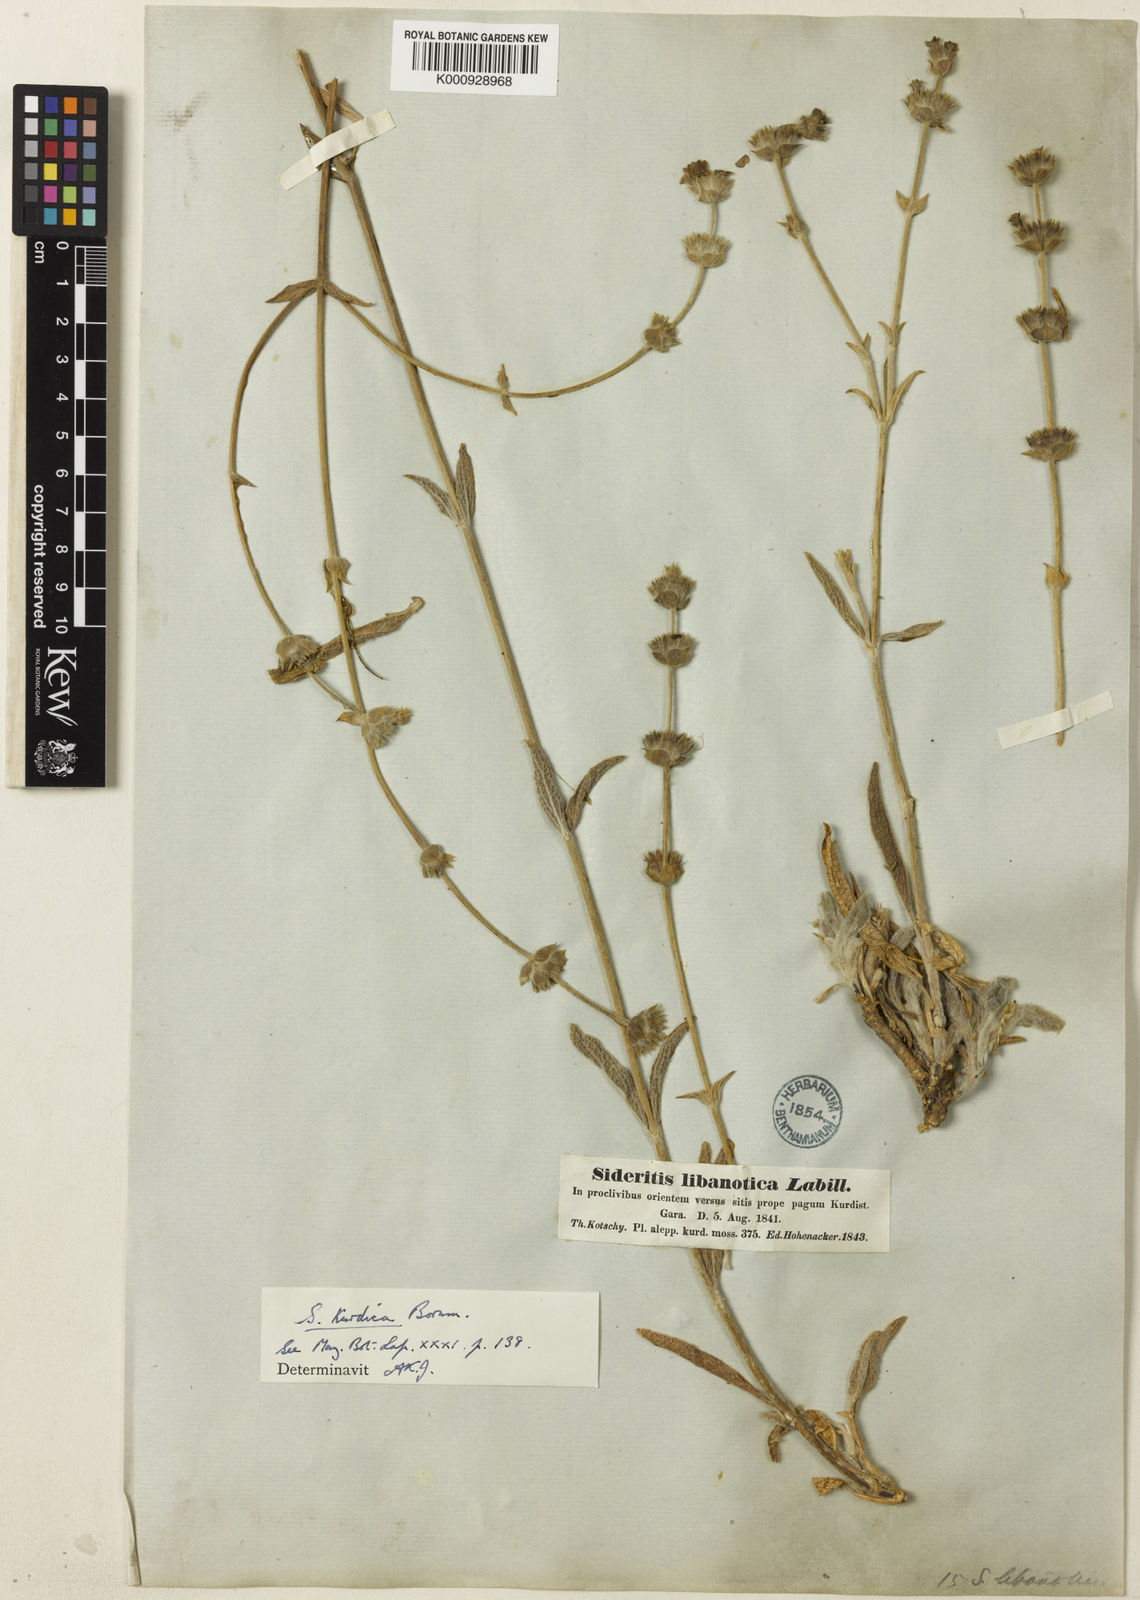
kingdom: Plantae
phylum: Tracheophyta
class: Magnoliopsida
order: Lamiales
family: Lamiaceae
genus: Sideritis
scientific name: Sideritis pisidica
